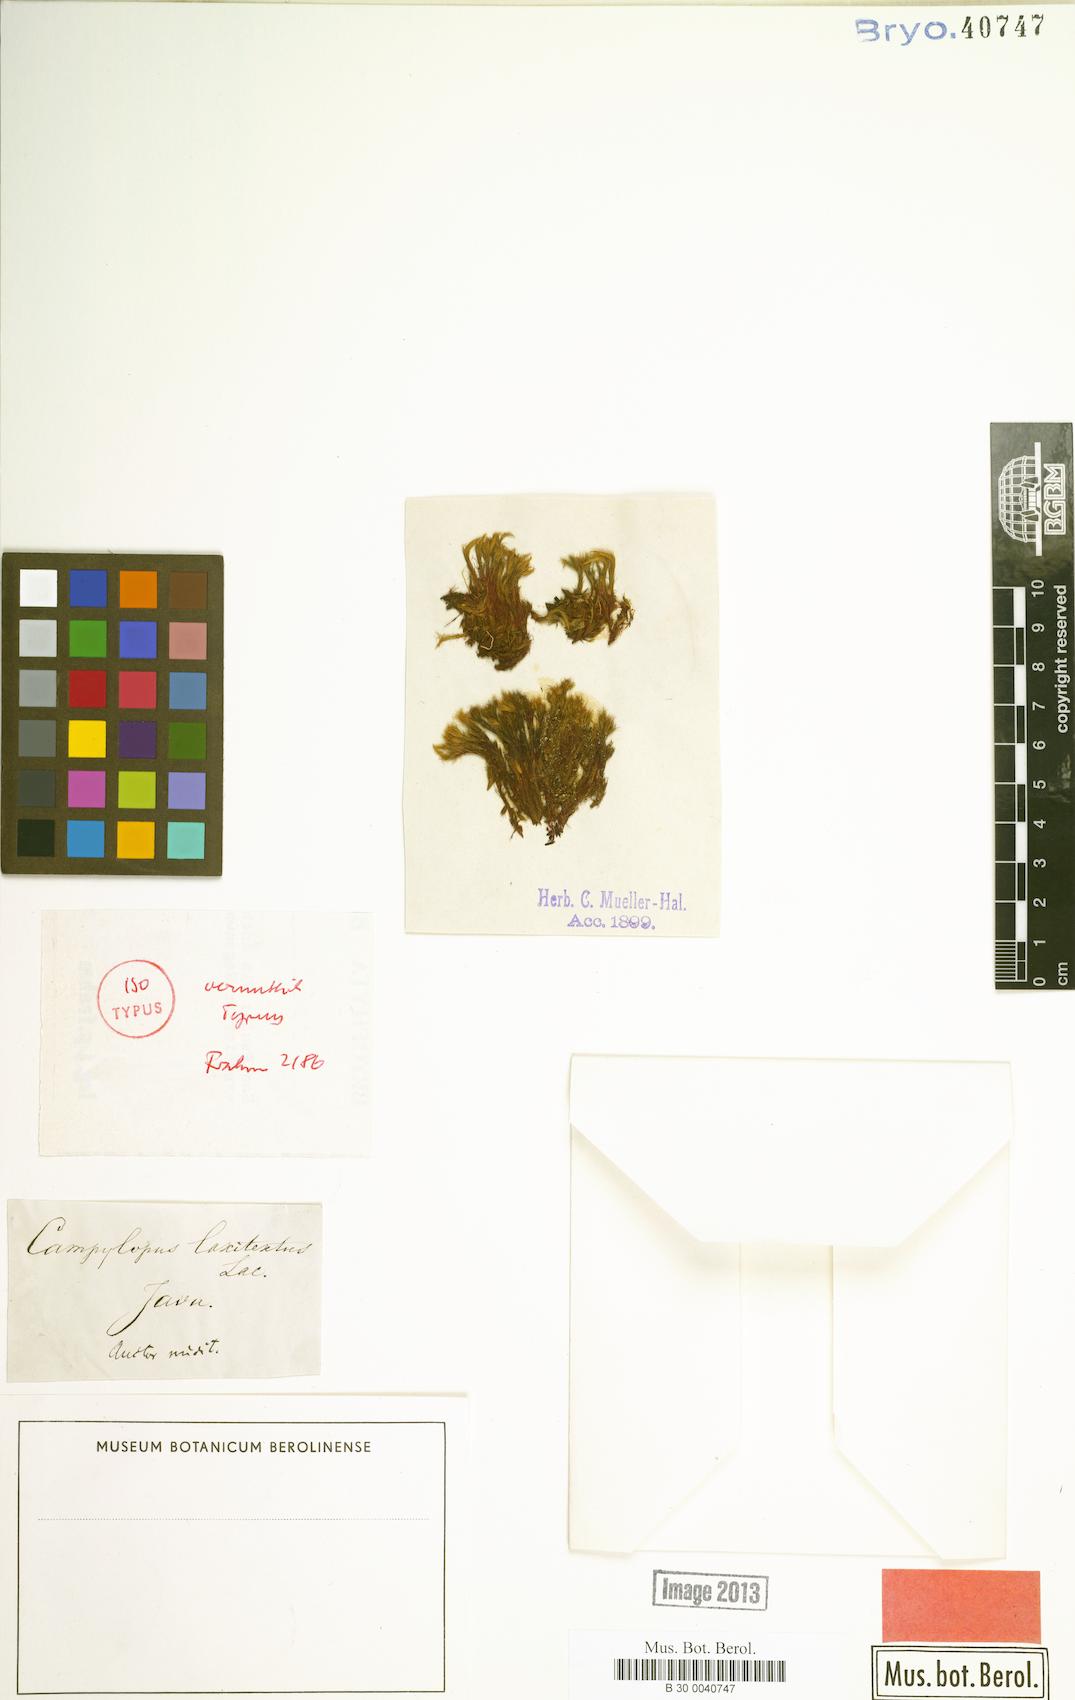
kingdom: Plantae
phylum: Bryophyta
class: Bryopsida
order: Dicranales
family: Leucobryaceae
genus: Campylopus
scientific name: Campylopus laxitextus
